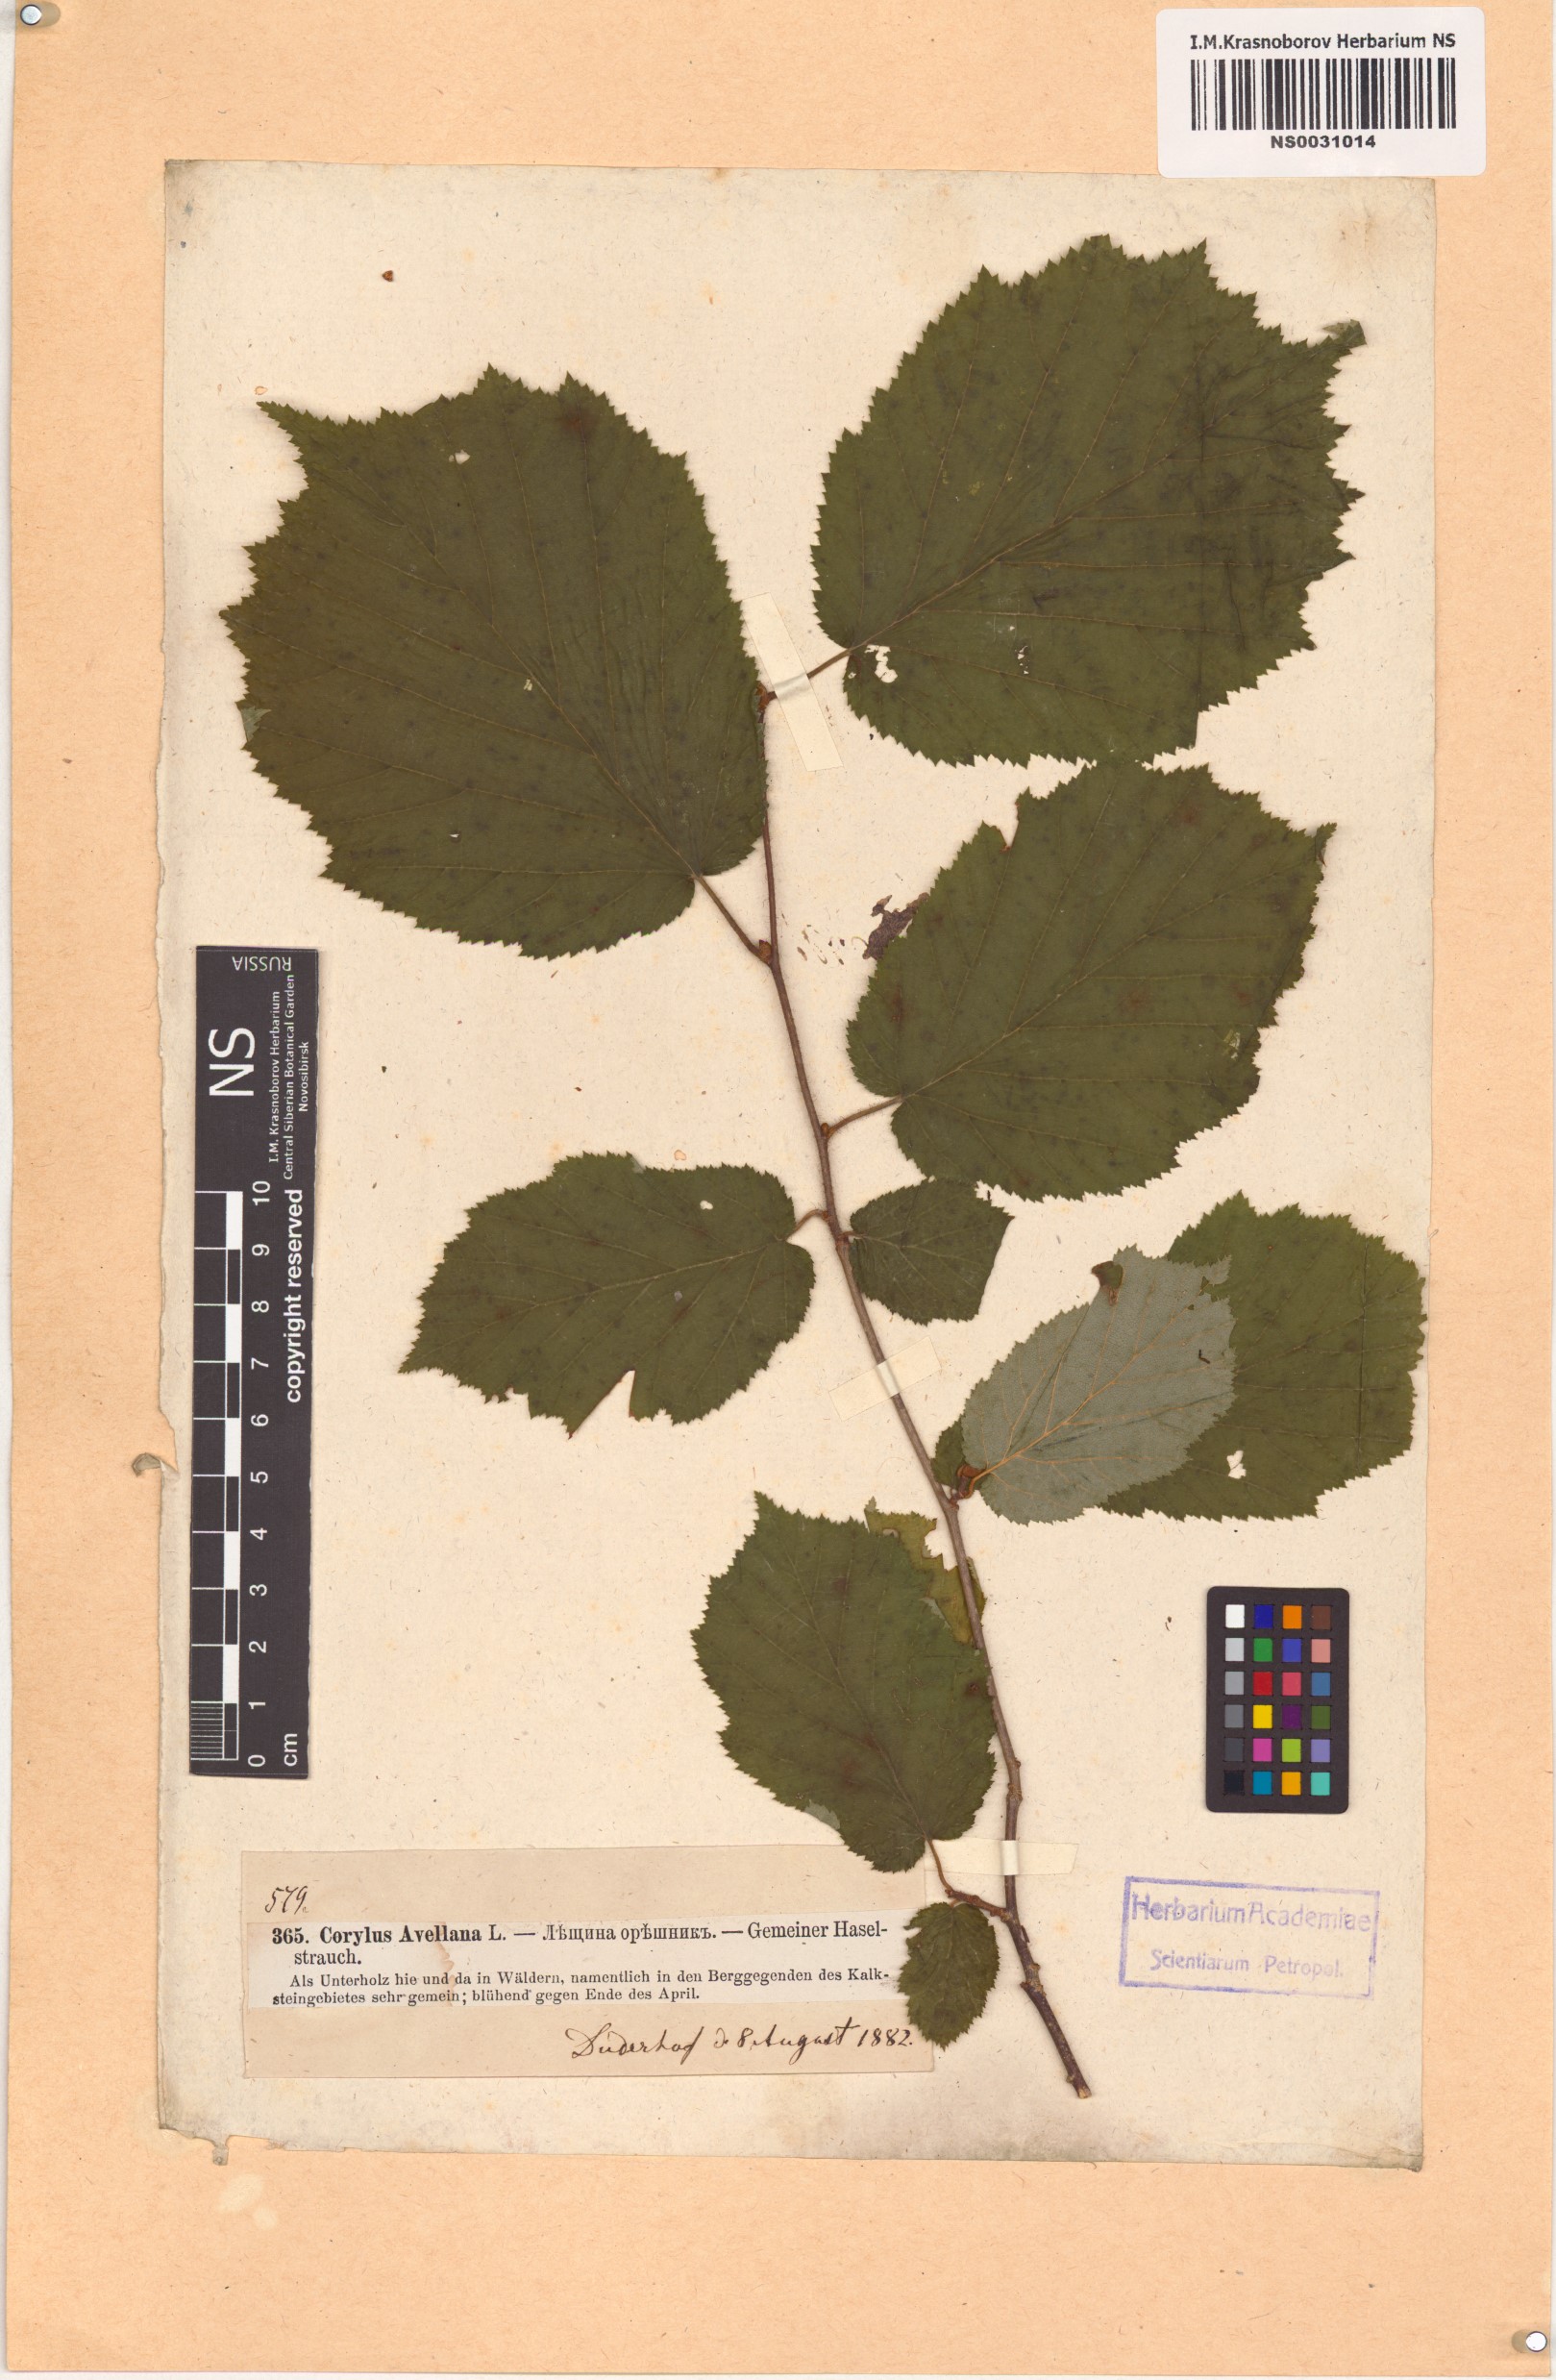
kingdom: Plantae
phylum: Tracheophyta
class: Magnoliopsida
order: Fagales
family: Betulaceae
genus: Corylus
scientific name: Corylus avellana
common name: European hazel
